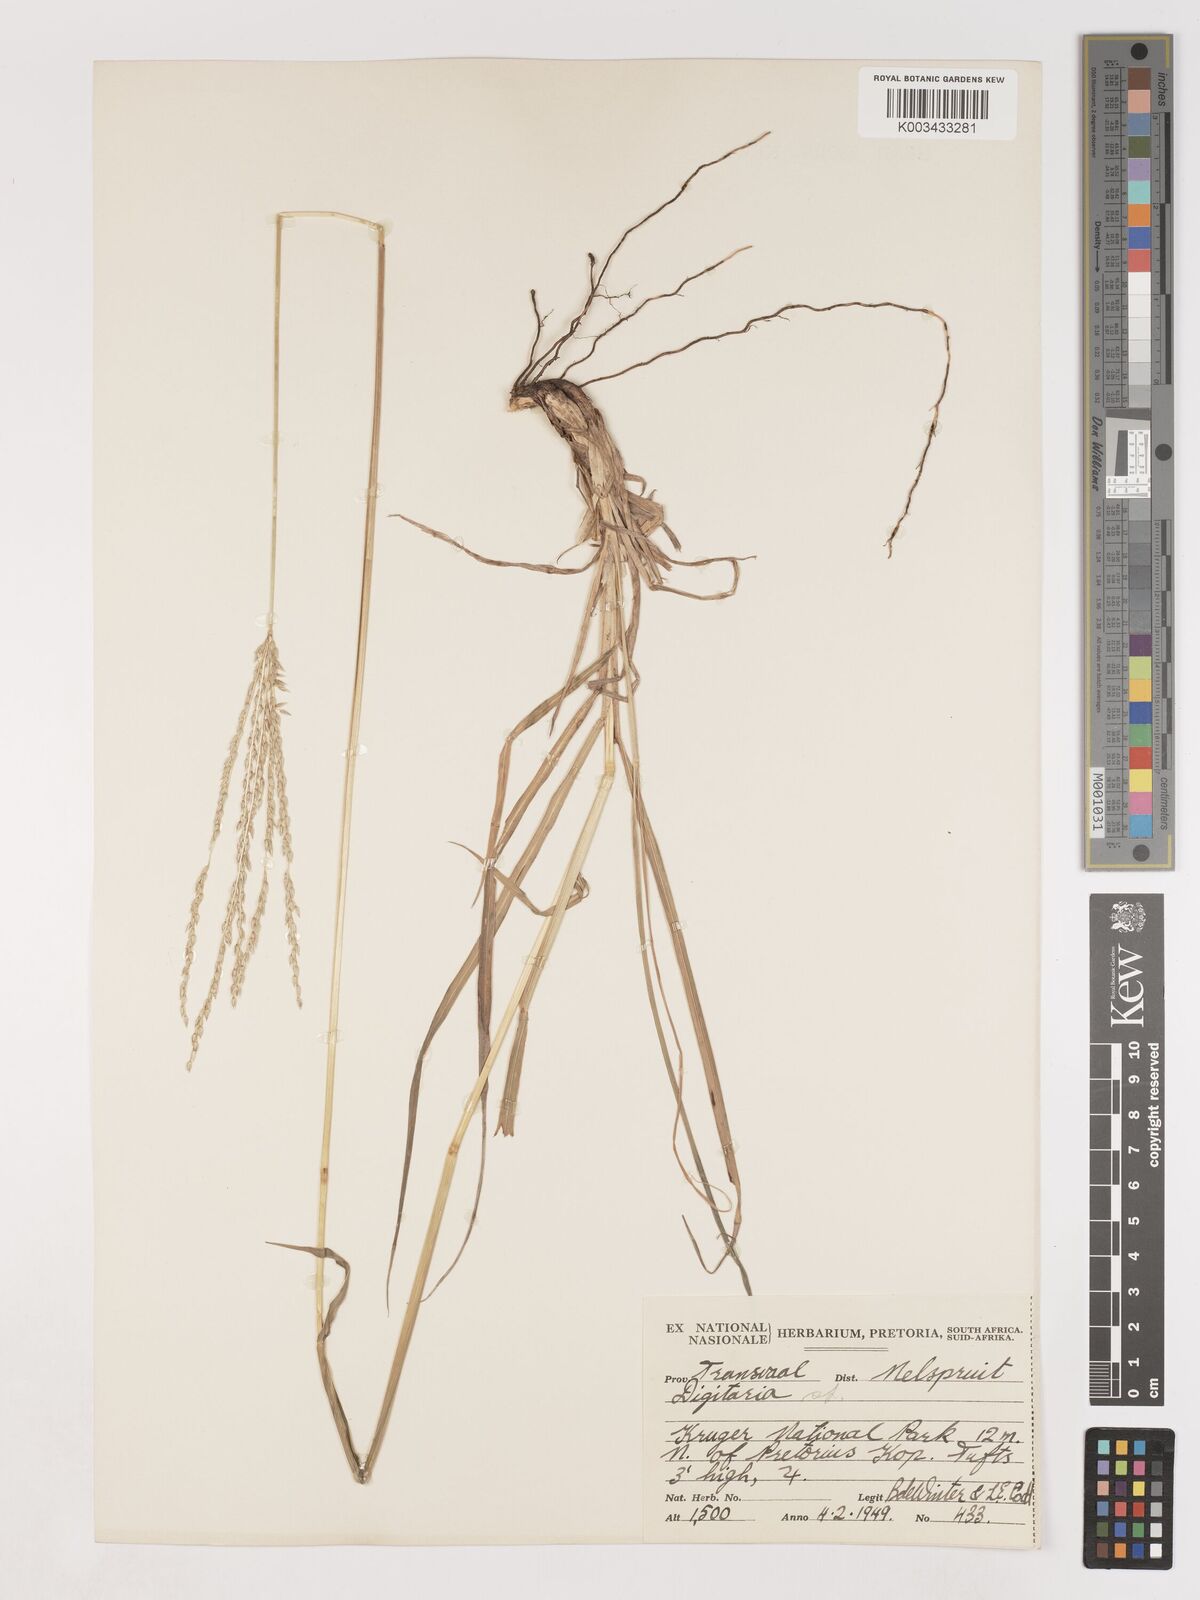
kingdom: Plantae
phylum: Tracheophyta
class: Liliopsida
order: Poales
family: Poaceae
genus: Digitaria
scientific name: Digitaria eriantha
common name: Digitgrass
